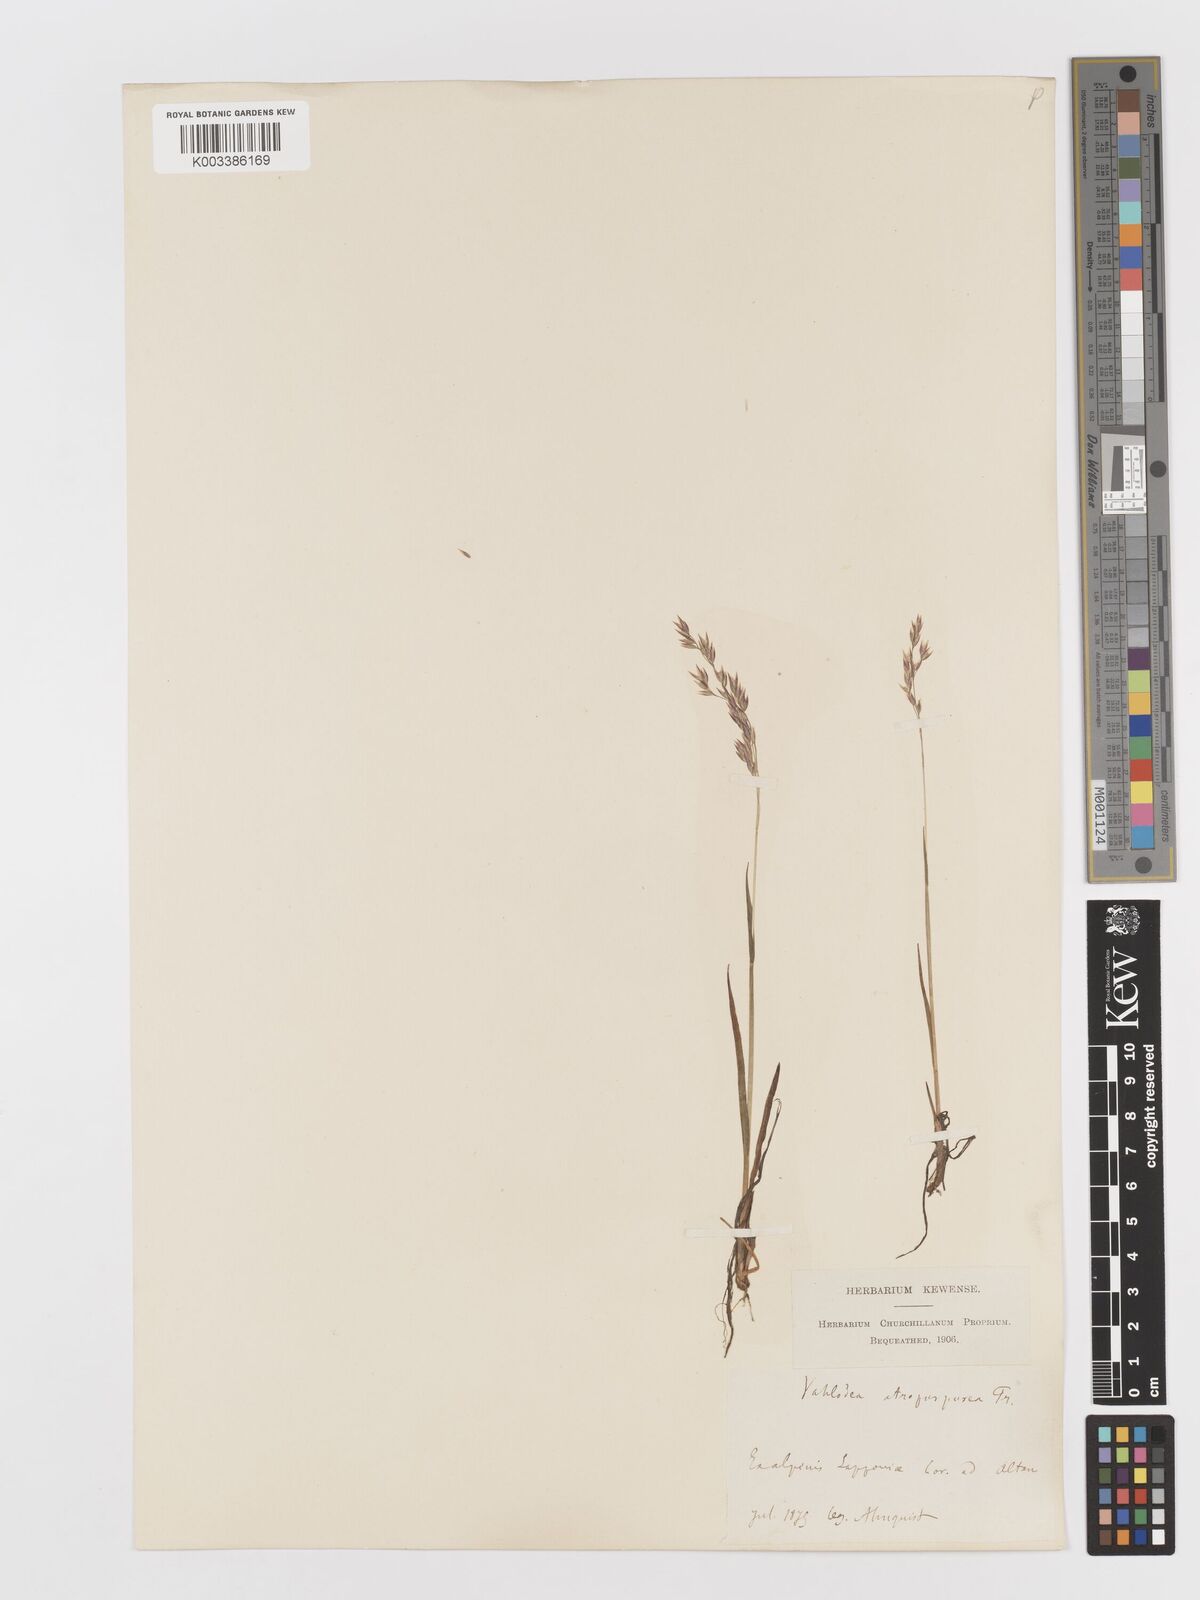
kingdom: Plantae
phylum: Tracheophyta
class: Liliopsida
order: Poales
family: Poaceae
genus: Vahlodea
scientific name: Vahlodea atropurpurea
